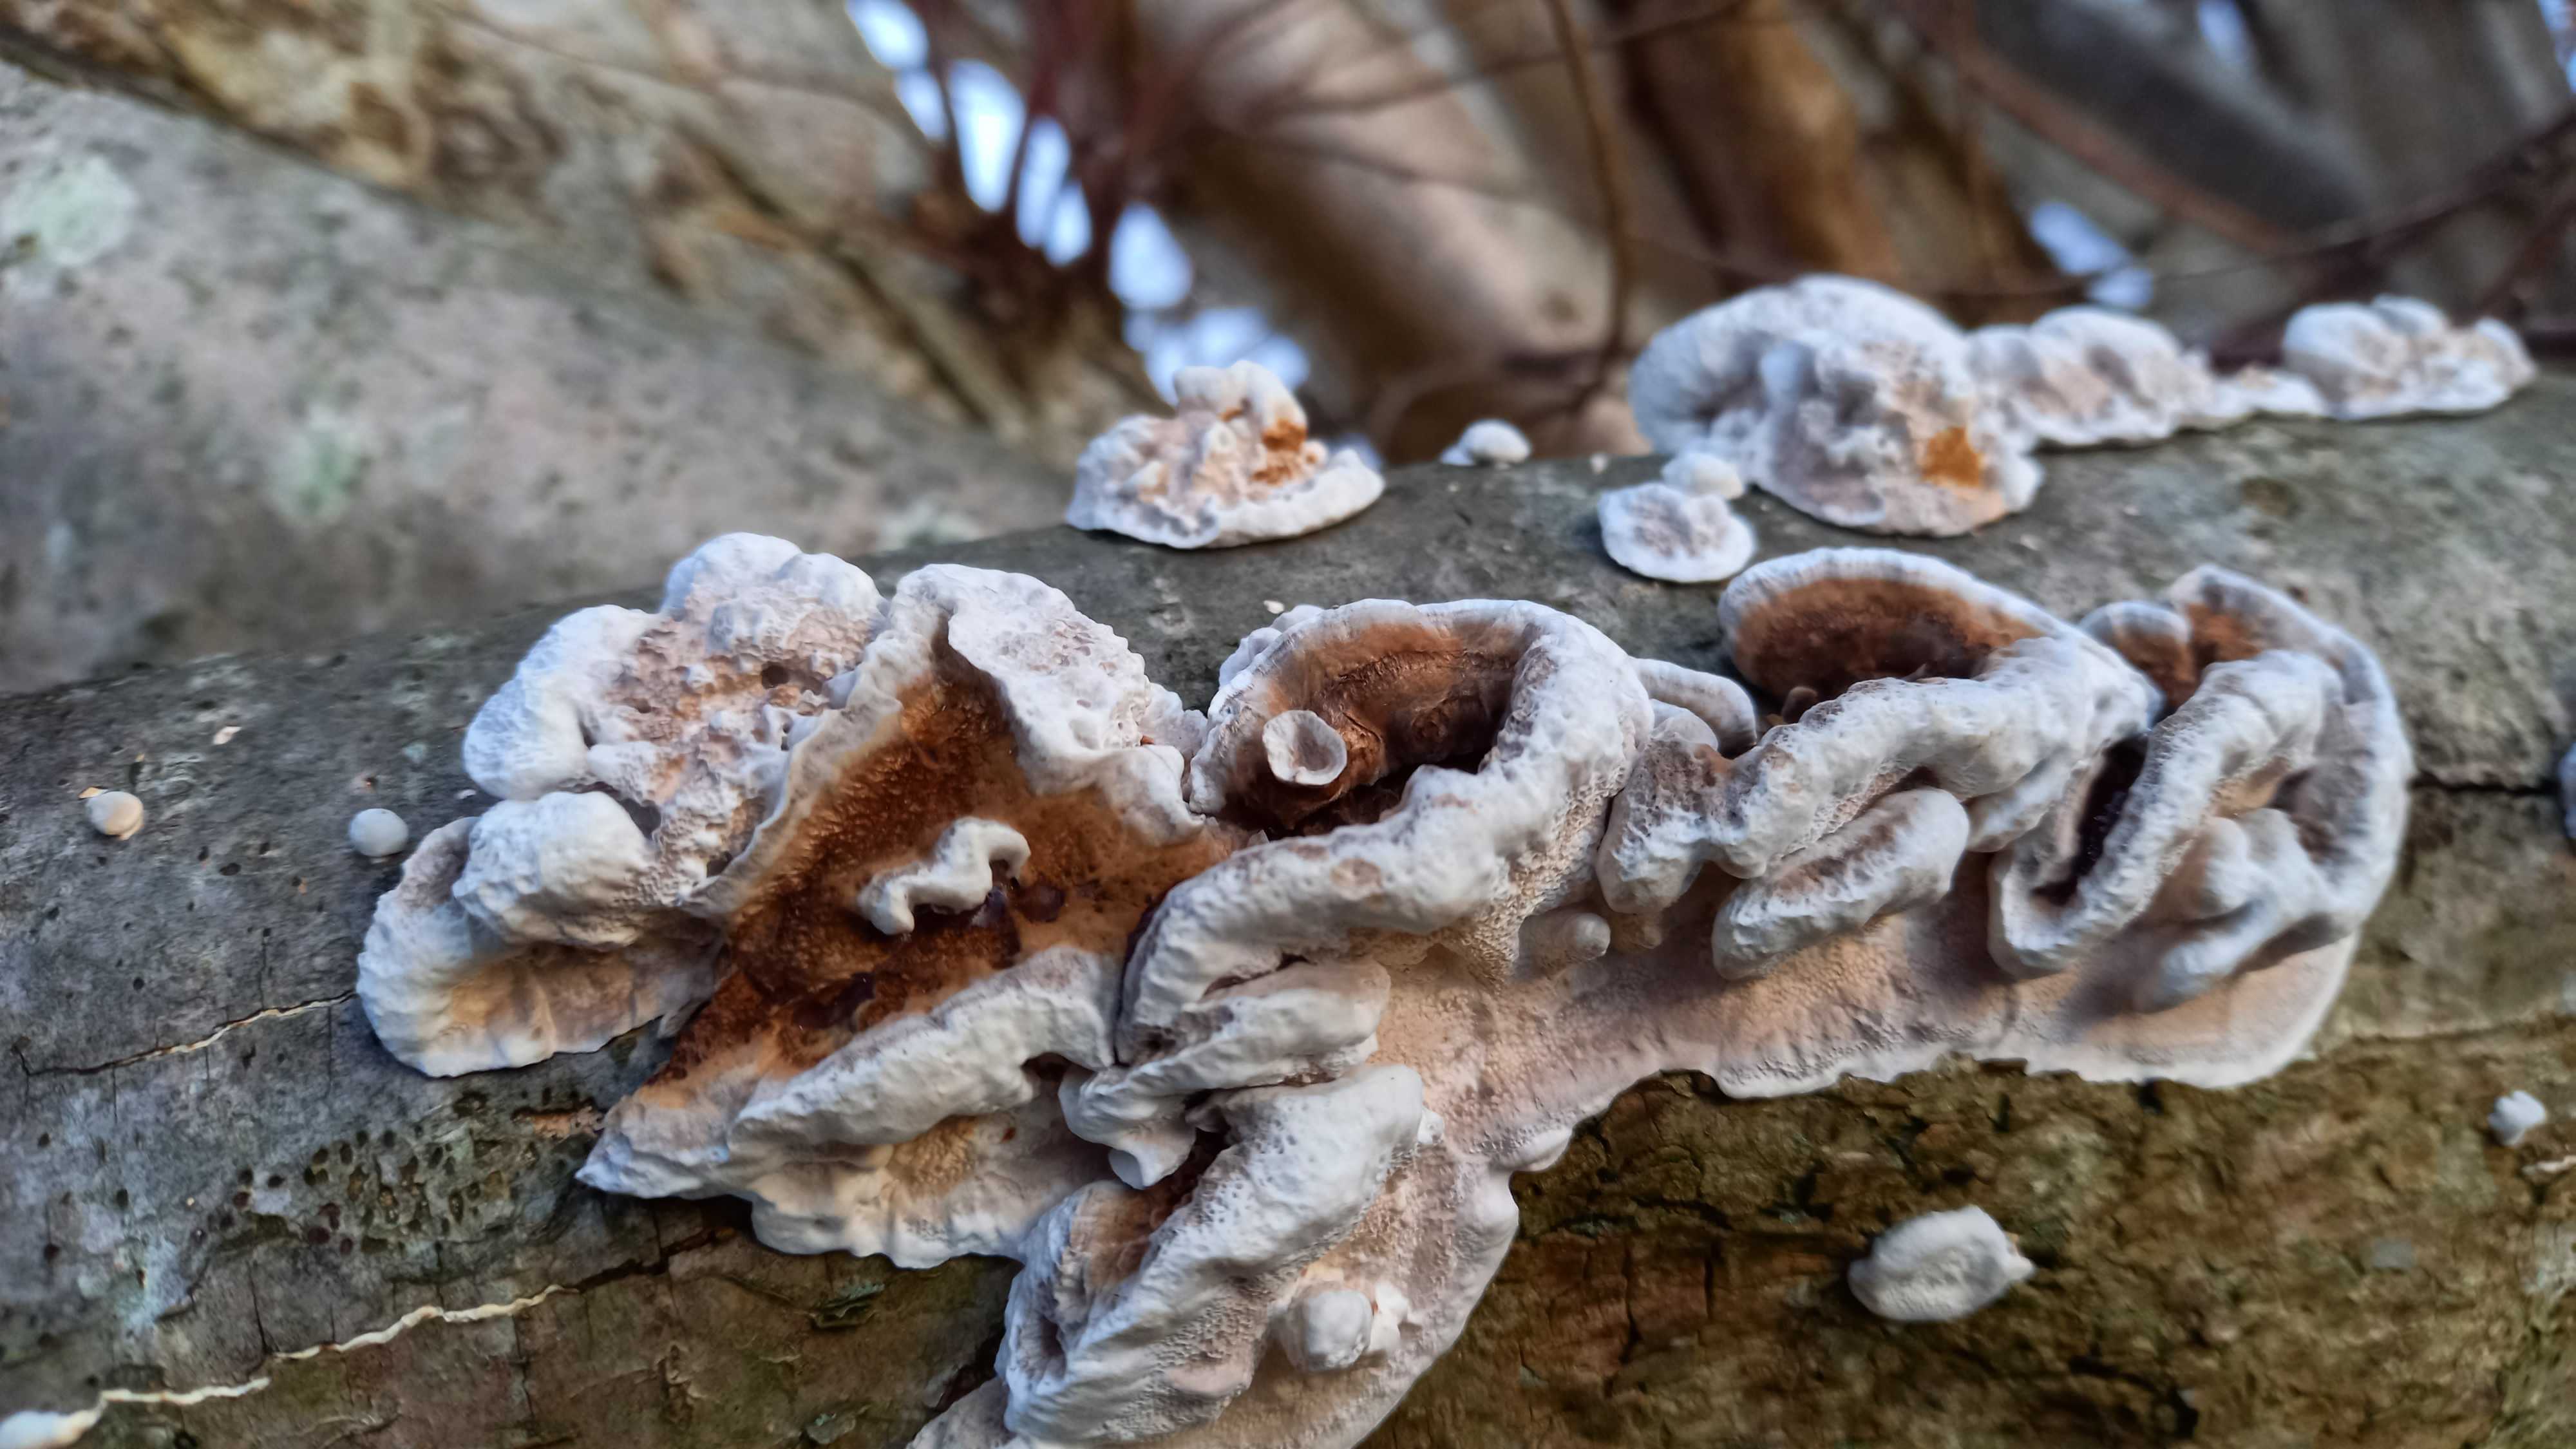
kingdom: Fungi
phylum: Basidiomycota
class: Agaricomycetes
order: Polyporales
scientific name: Polyporales
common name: poresvampordenen
